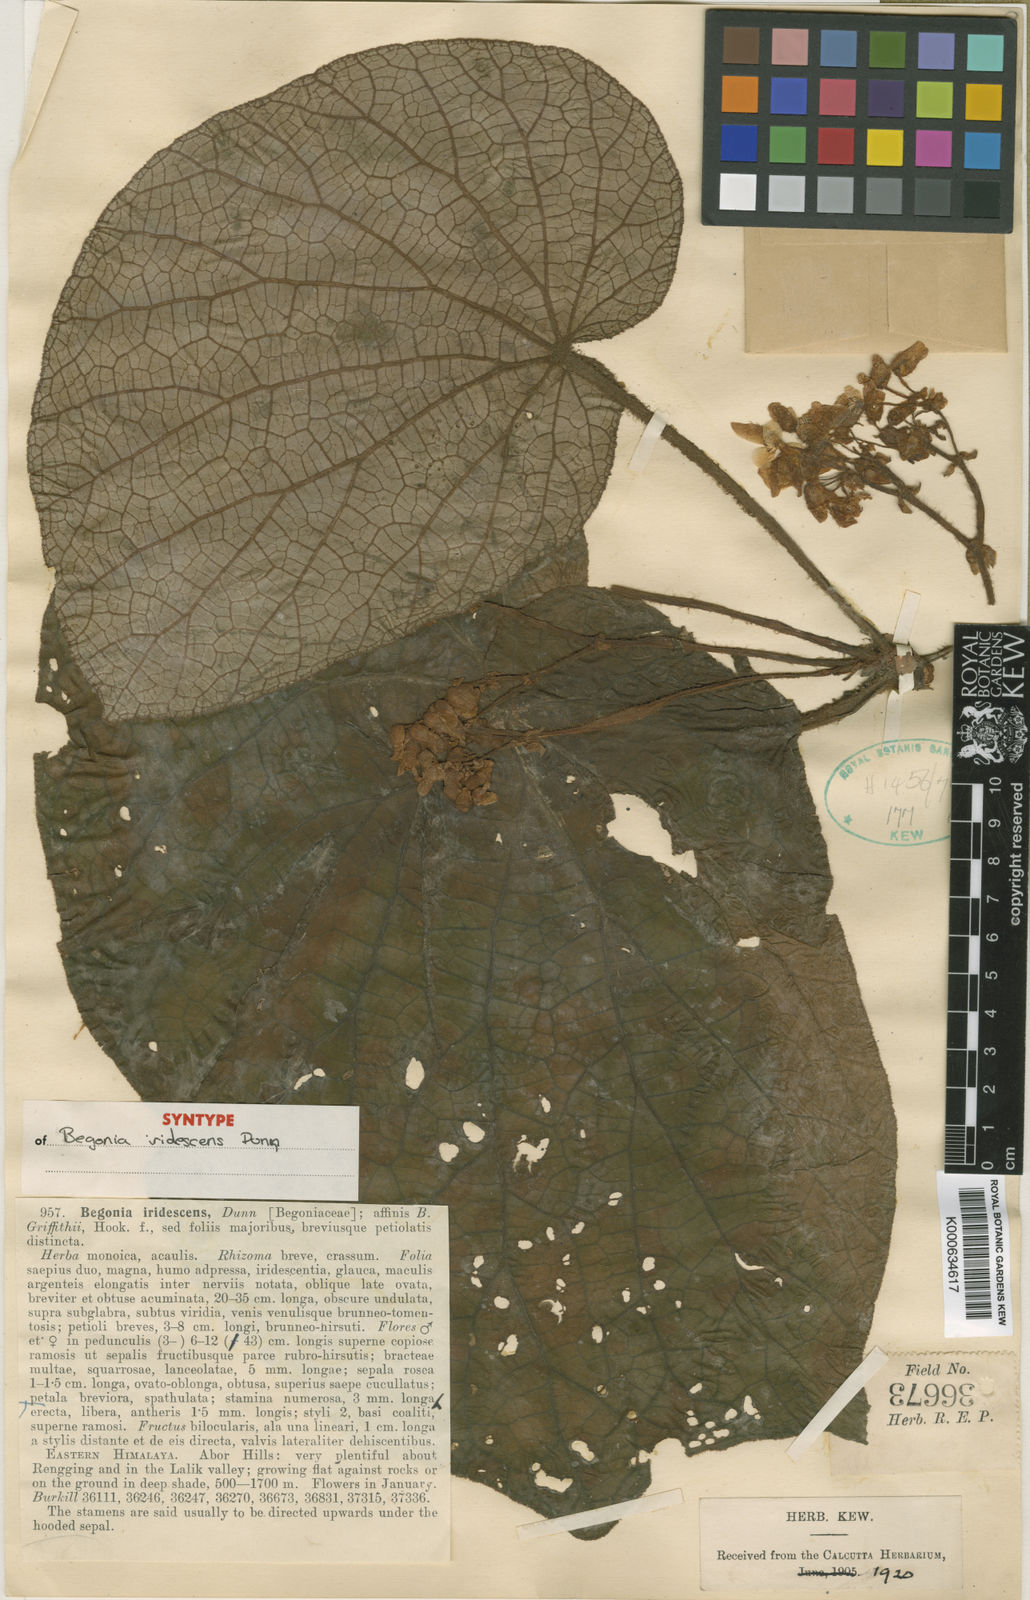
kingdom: Plantae
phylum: Tracheophyta
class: Magnoliopsida
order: Cucurbitales
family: Begoniaceae
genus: Begonia
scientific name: Begonia iridescens
